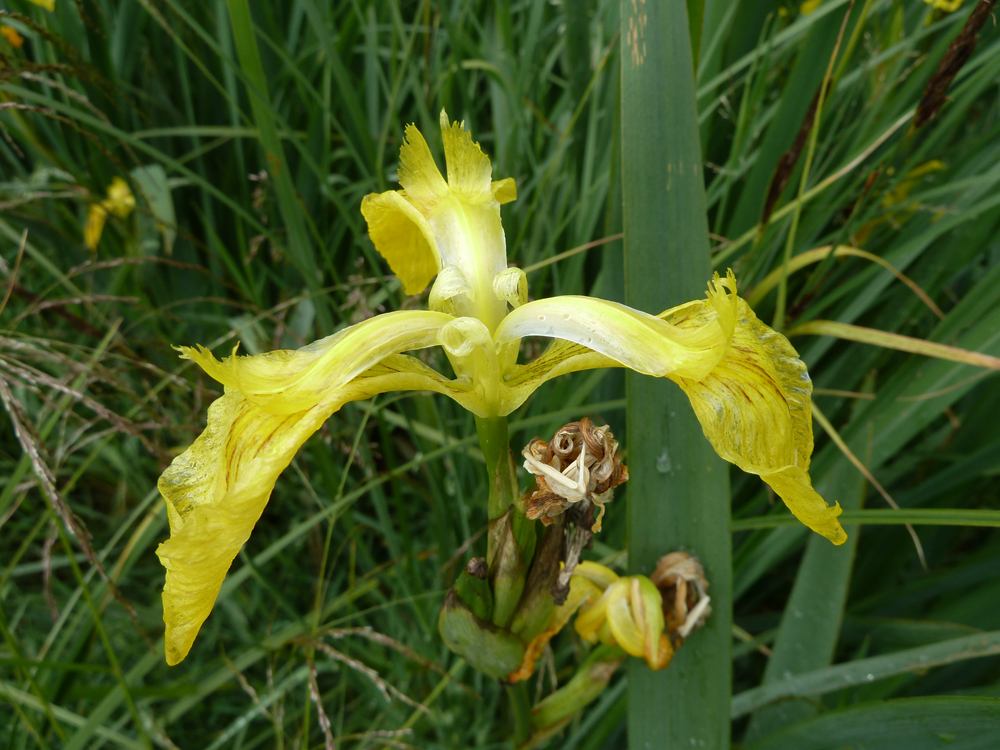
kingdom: Plantae
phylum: Tracheophyta
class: Liliopsida
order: Asparagales
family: Iridaceae
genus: Iris
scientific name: Iris pseudacorus
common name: Yellow flag
